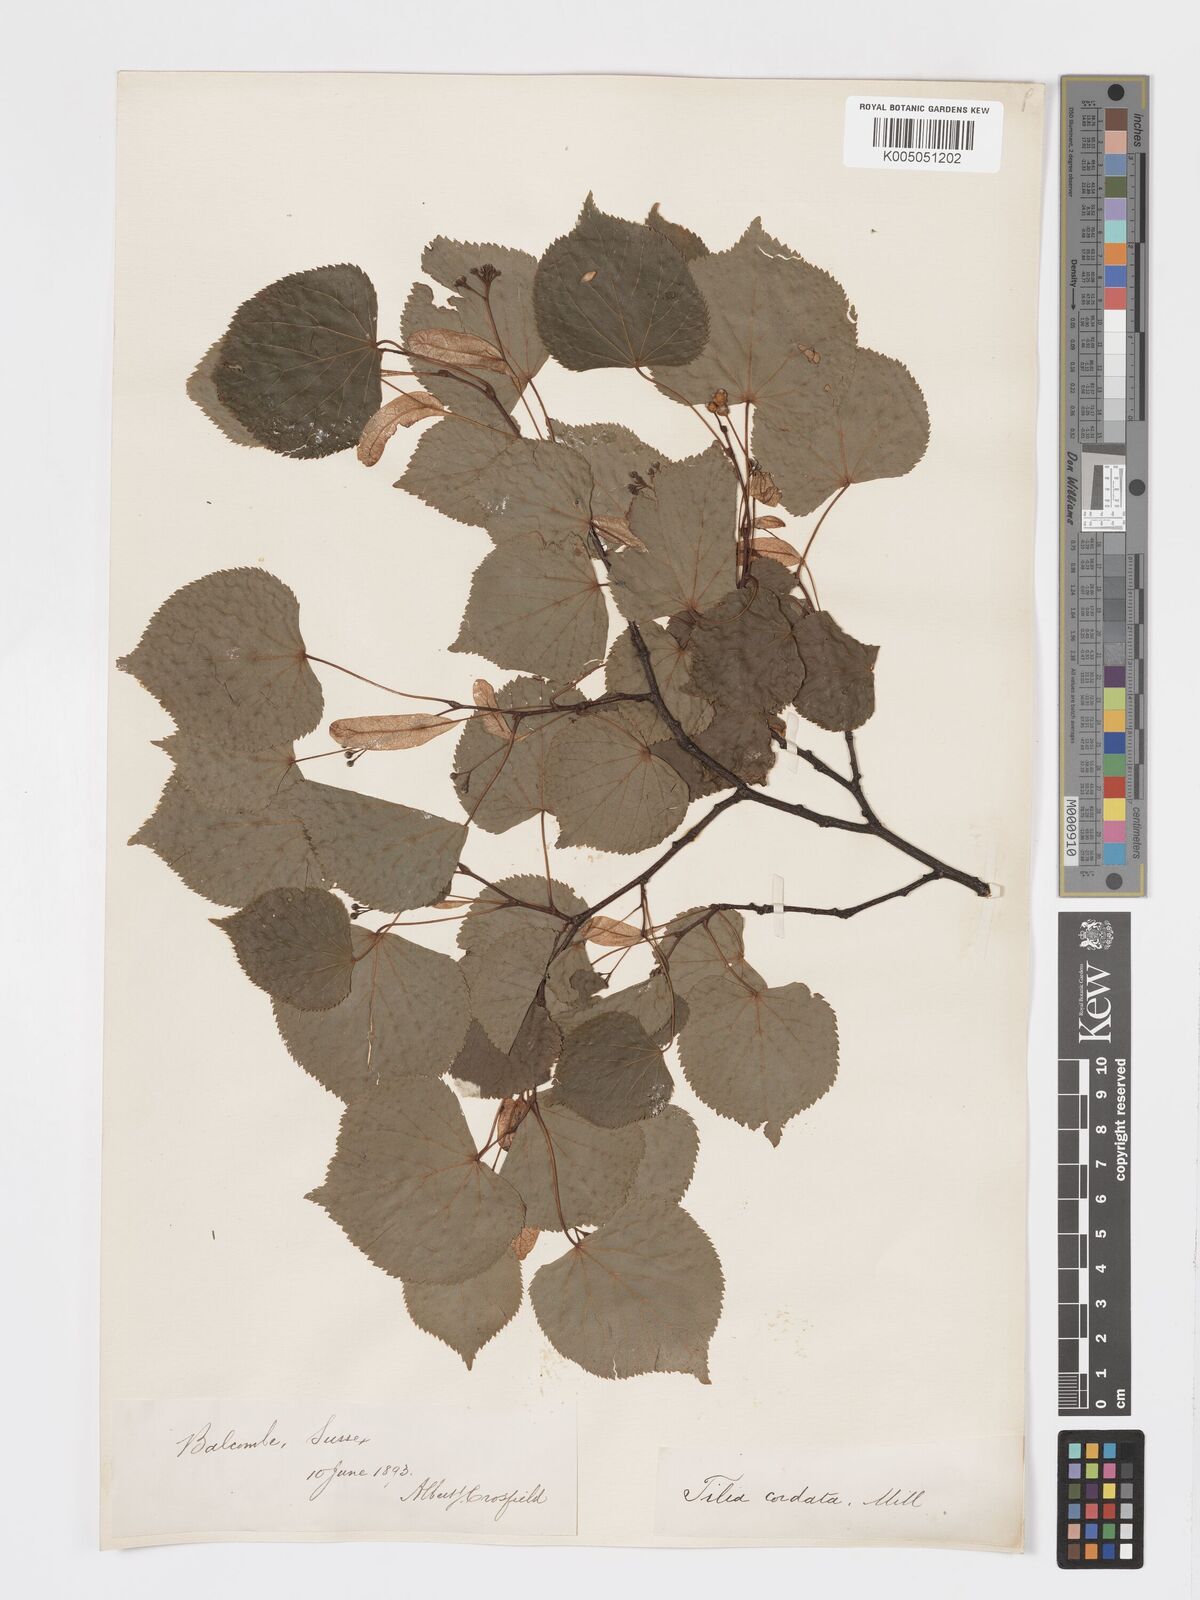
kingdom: Plantae
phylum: Tracheophyta
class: Magnoliopsida
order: Malvales
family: Malvaceae
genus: Tilia
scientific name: Tilia
